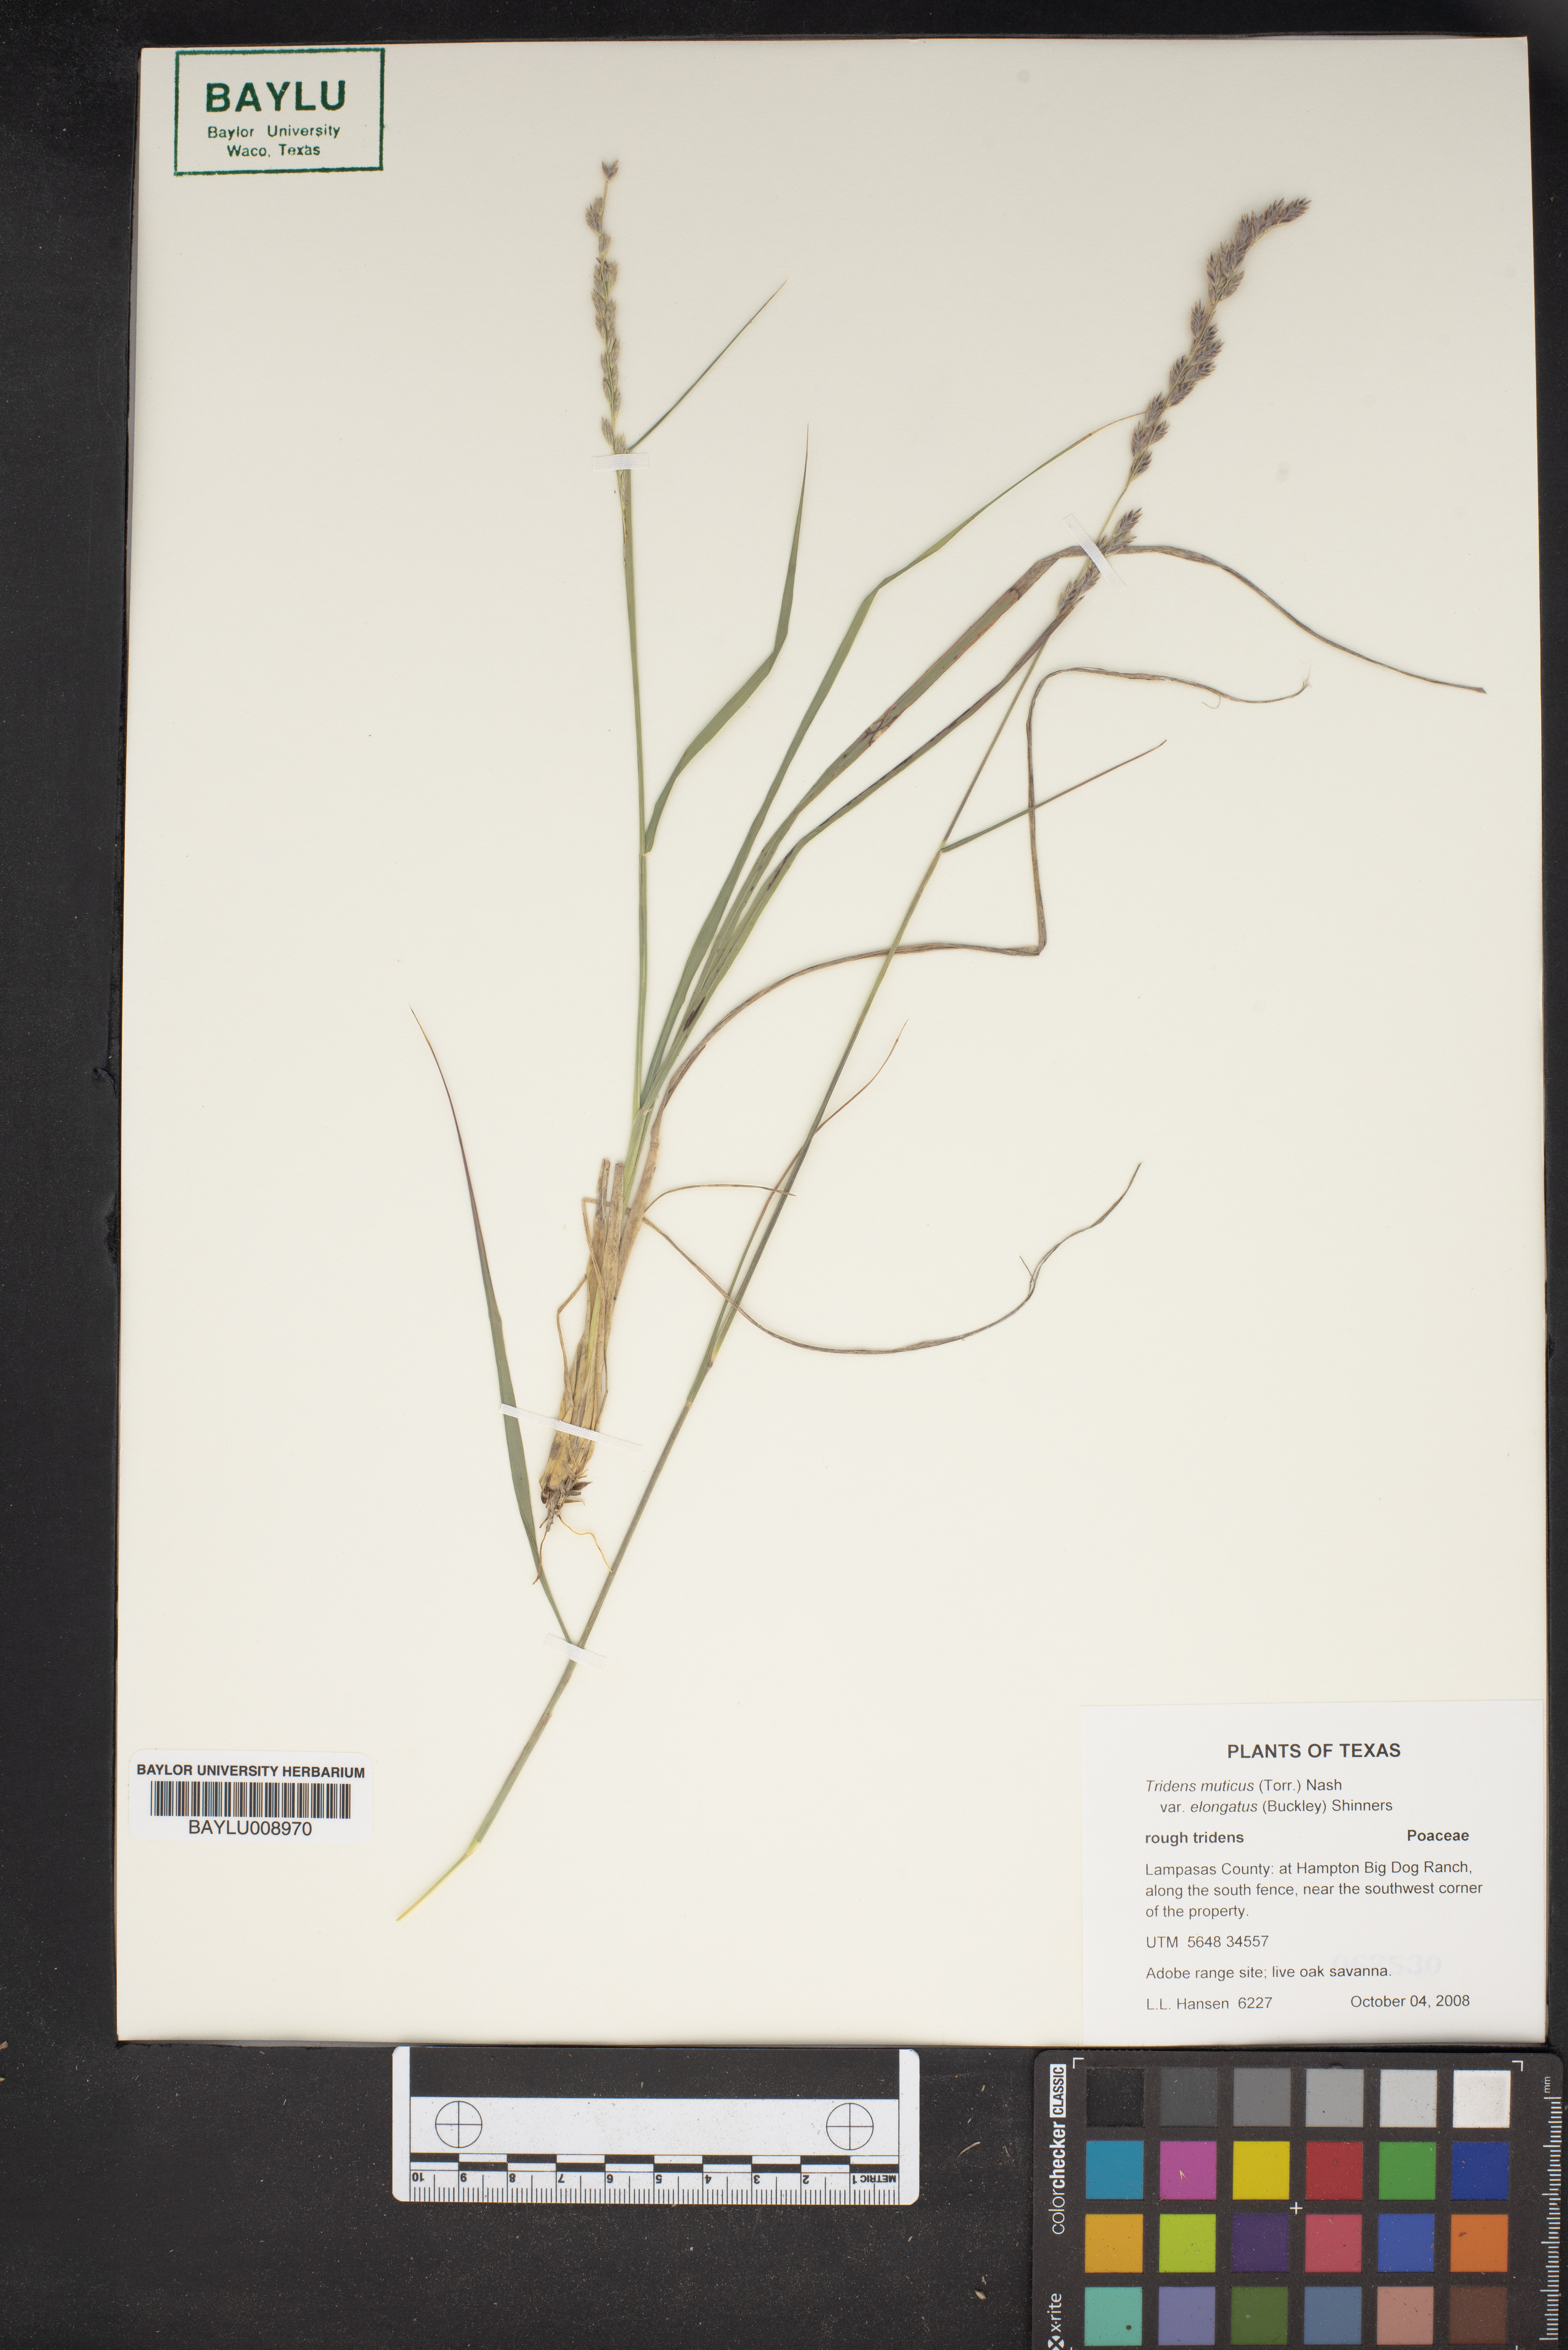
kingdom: Plantae
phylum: Tracheophyta
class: Liliopsida
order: Poales
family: Poaceae
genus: Tridentopsis
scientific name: Tridentopsis mutica
